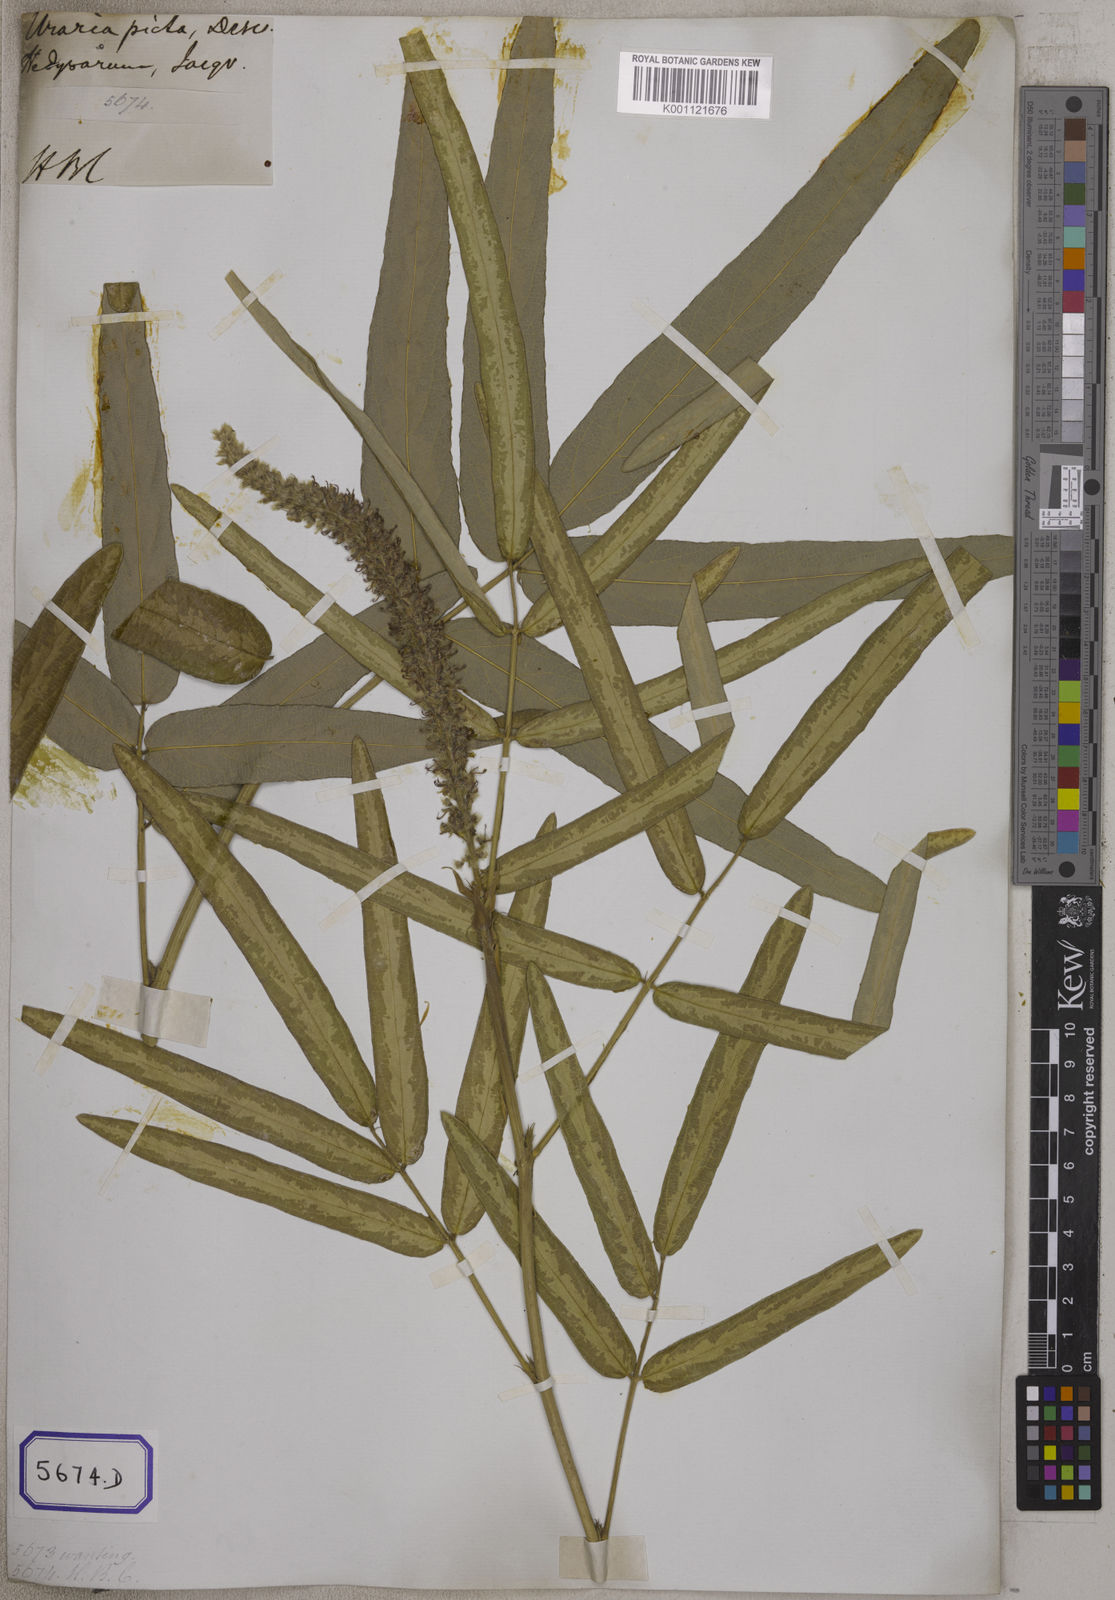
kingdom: Plantae
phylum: Tracheophyta
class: Magnoliopsida
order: Fabales
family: Fabaceae
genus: Uraria
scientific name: Uraria
